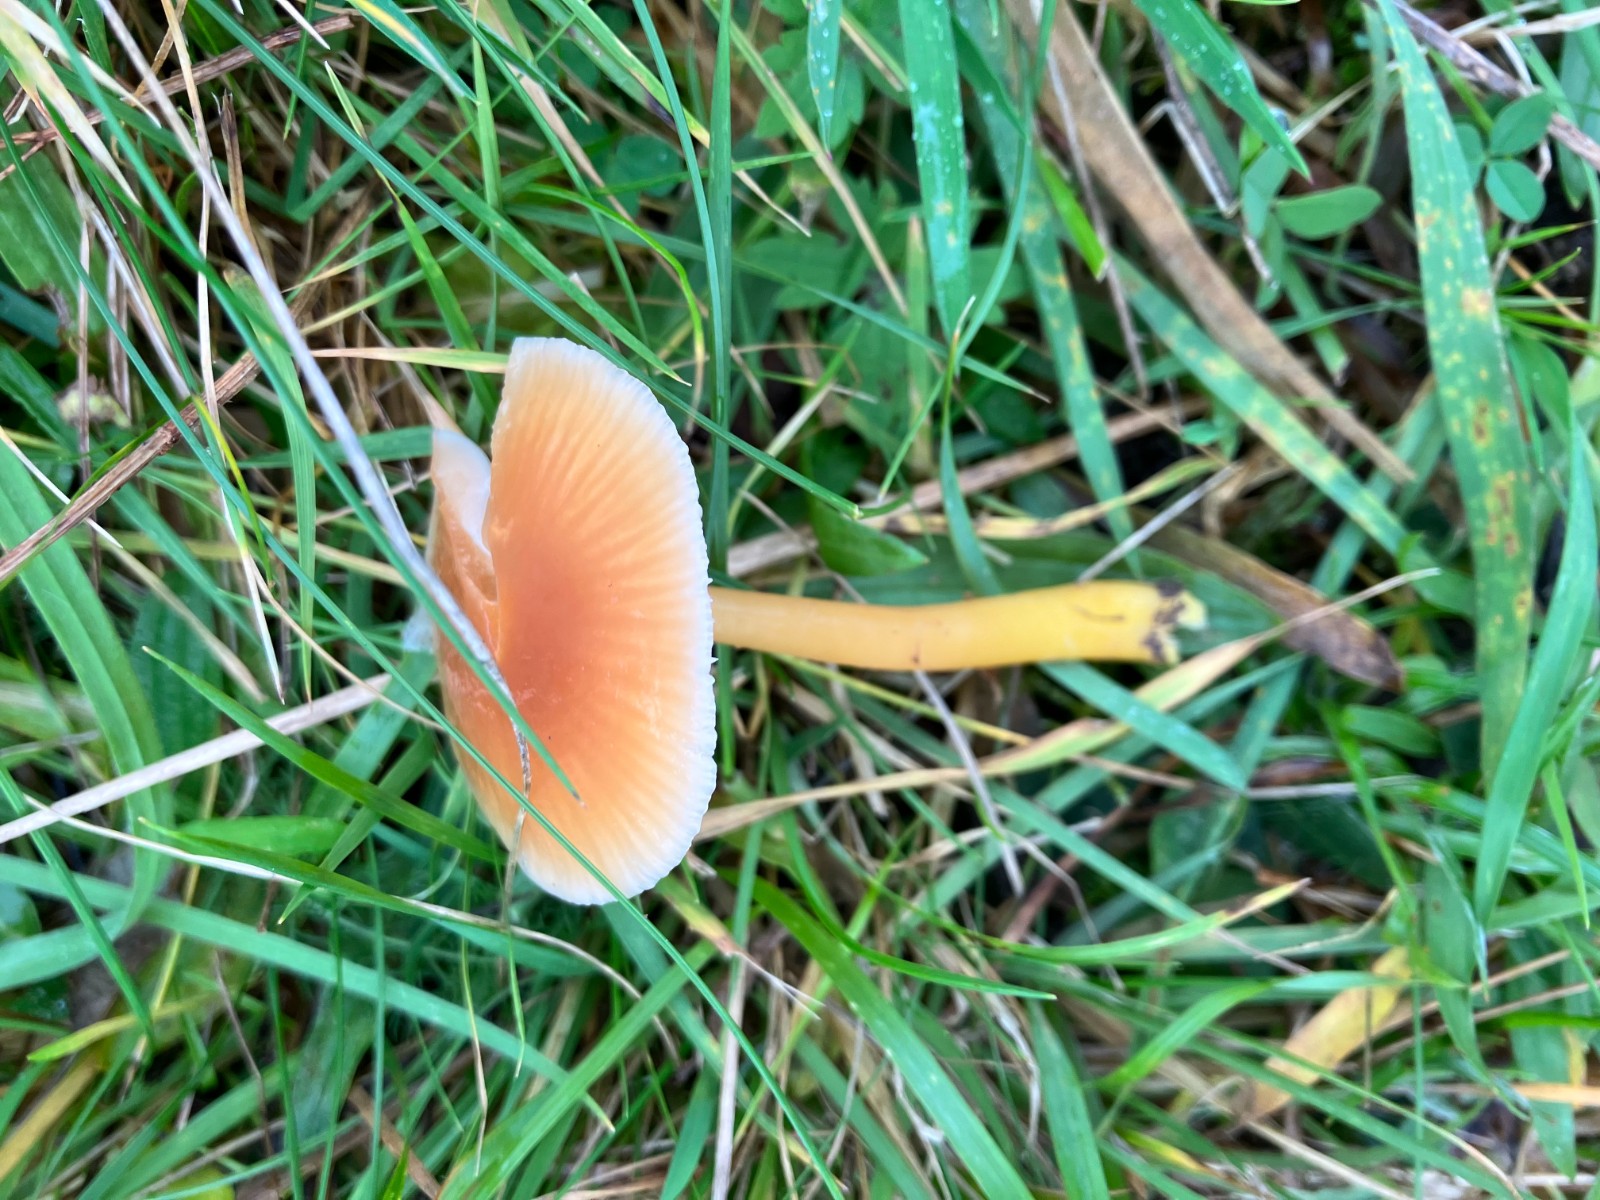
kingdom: Fungi
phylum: Basidiomycota
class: Agaricomycetes
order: Agaricales
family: Hygrophoraceae
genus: Gliophorus
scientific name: Gliophorus laetus
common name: brusk-vokshat
